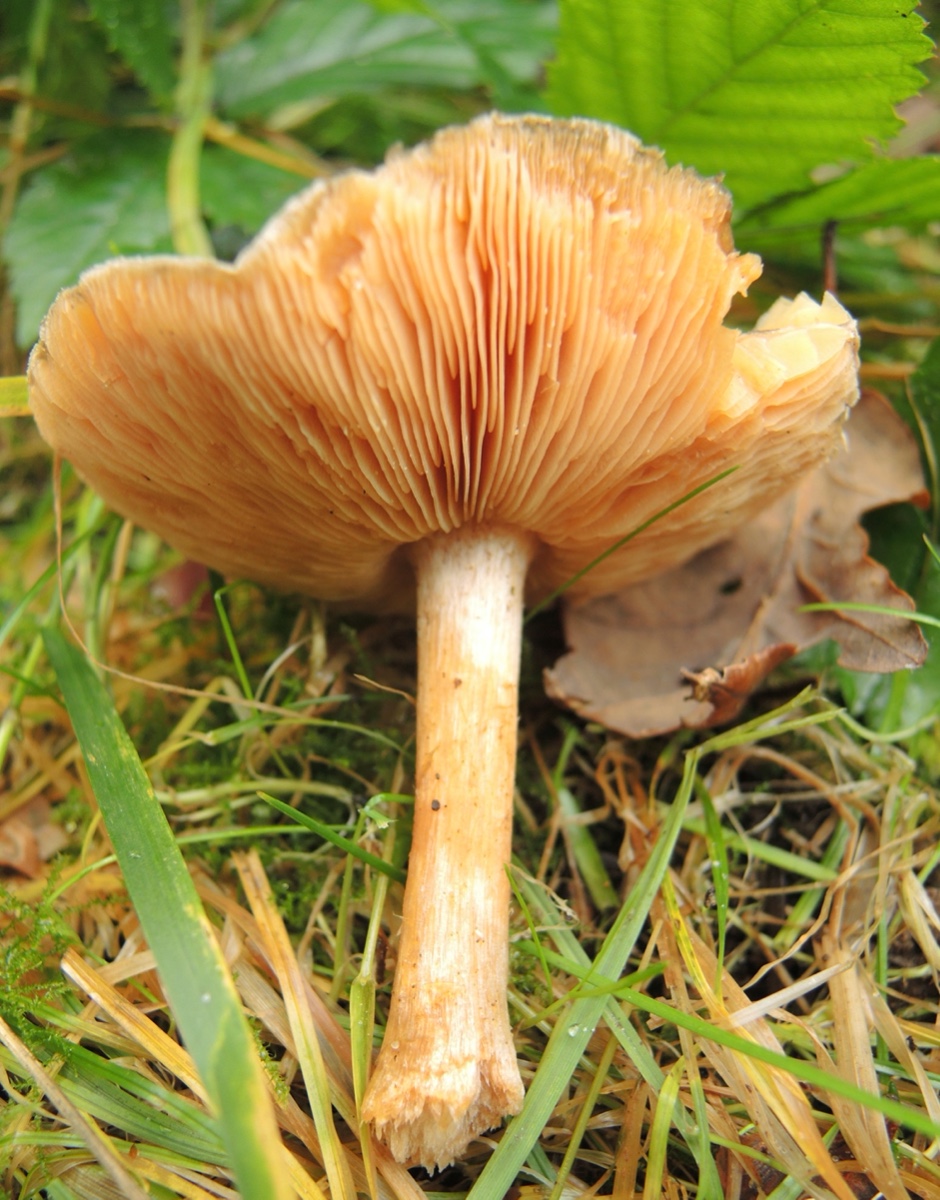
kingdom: Fungi
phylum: Basidiomycota
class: Agaricomycetes
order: Agaricales
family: Tricholomataceae
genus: Melanoleuca
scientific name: Melanoleuca cognata
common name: gyldengrå munkehat
